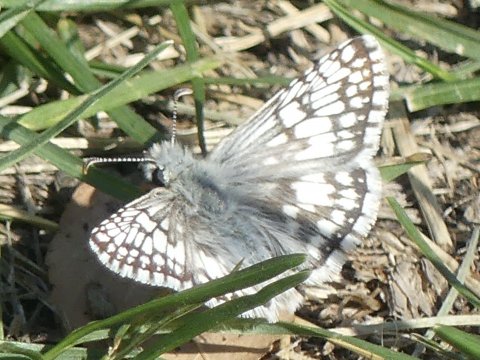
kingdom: Animalia
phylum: Arthropoda
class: Insecta
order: Lepidoptera
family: Hesperiidae
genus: Pyrgus
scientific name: Pyrgus communis
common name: Common Checkered-Skipper
